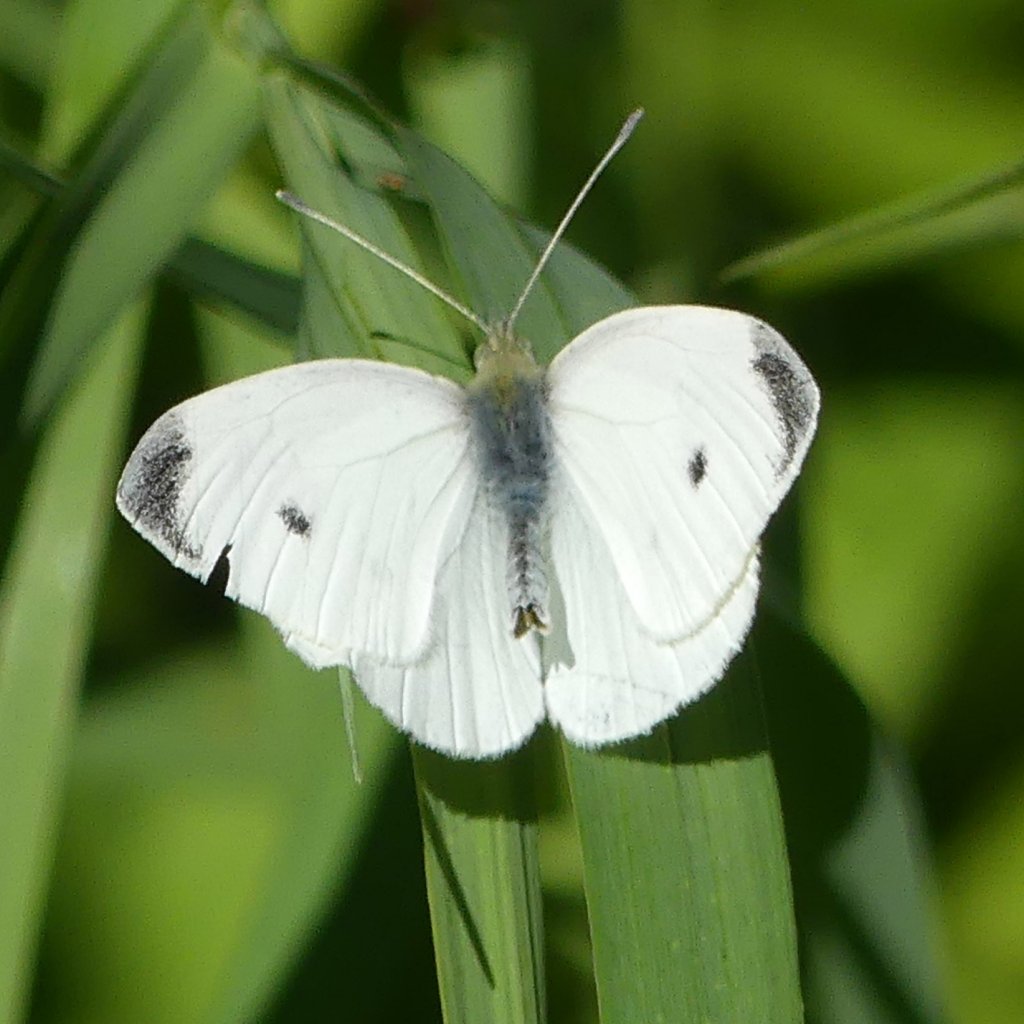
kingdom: Animalia
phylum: Arthropoda
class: Insecta
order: Lepidoptera
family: Pieridae
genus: Pieris
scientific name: Pieris rapae
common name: Cabbage White
